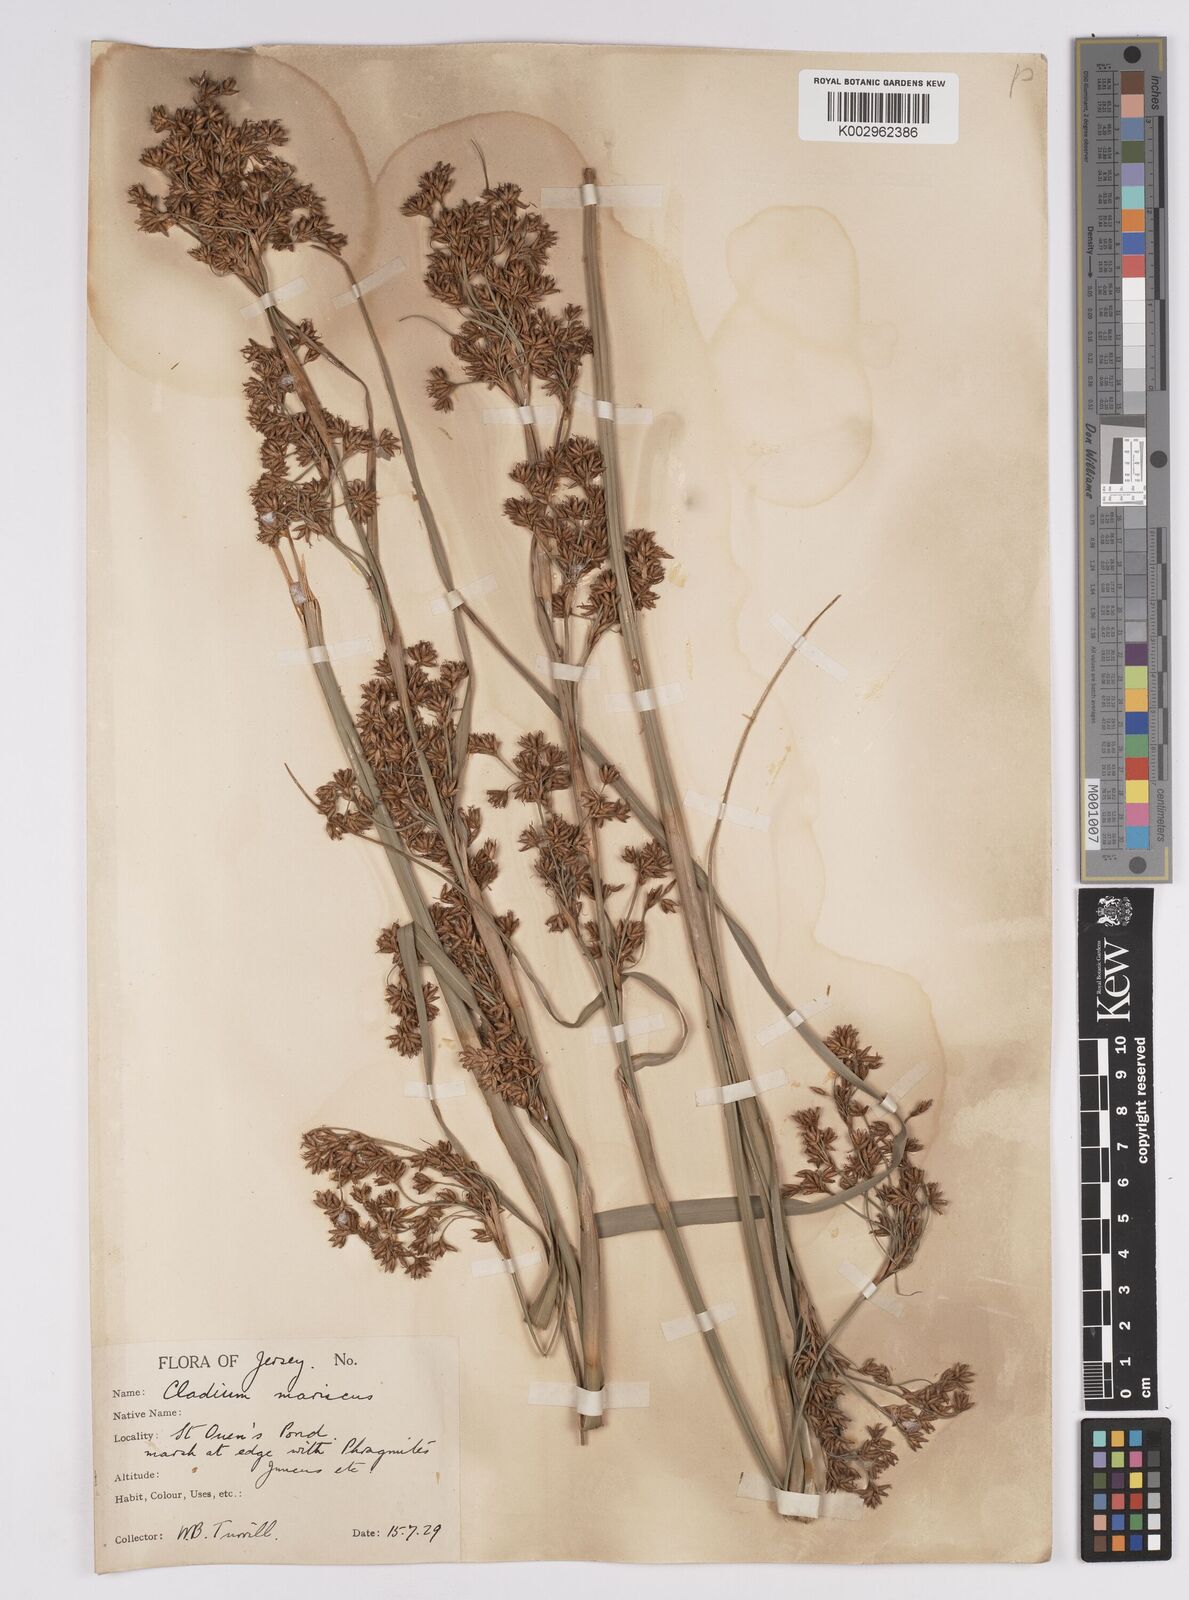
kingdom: Plantae
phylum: Tracheophyta
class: Liliopsida
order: Poales
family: Cyperaceae
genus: Cladium
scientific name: Cladium mariscus
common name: Great fen-sedge
